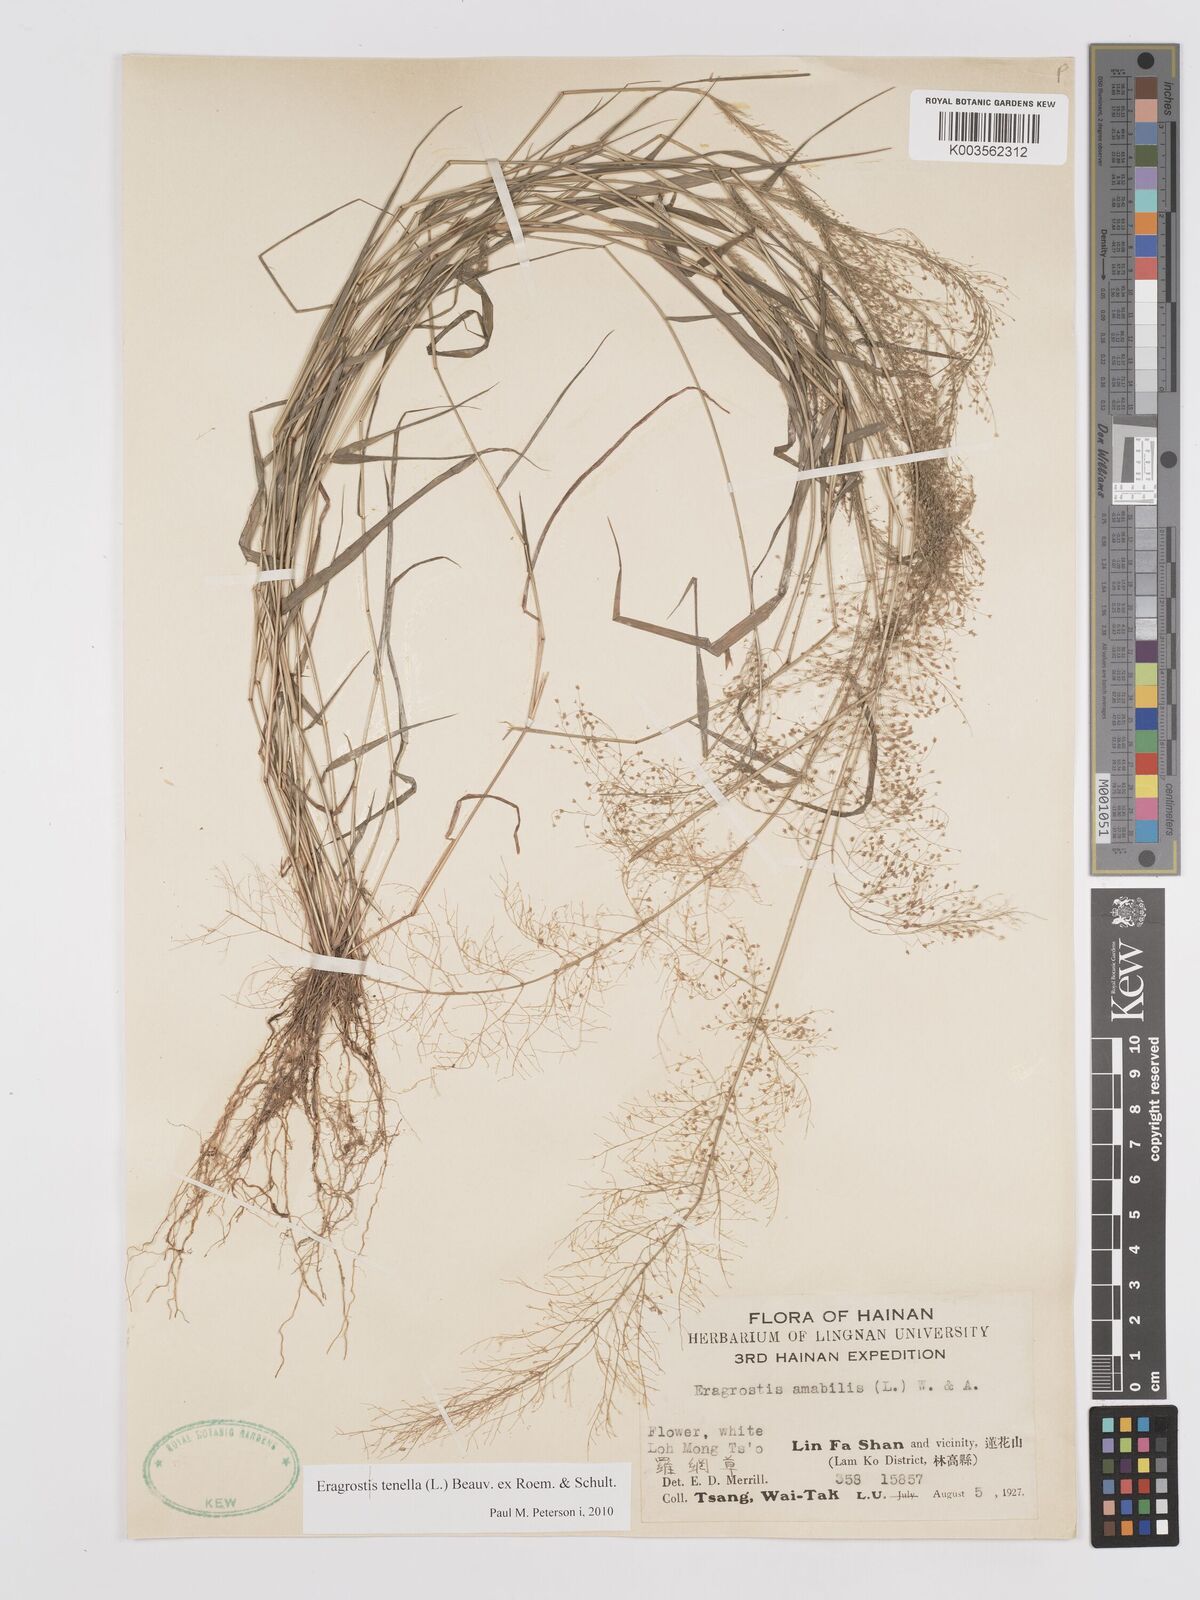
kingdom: Plantae
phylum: Tracheophyta
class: Liliopsida
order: Poales
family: Poaceae
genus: Eragrostis
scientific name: Eragrostis tenella
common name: Japanese lovegrass
